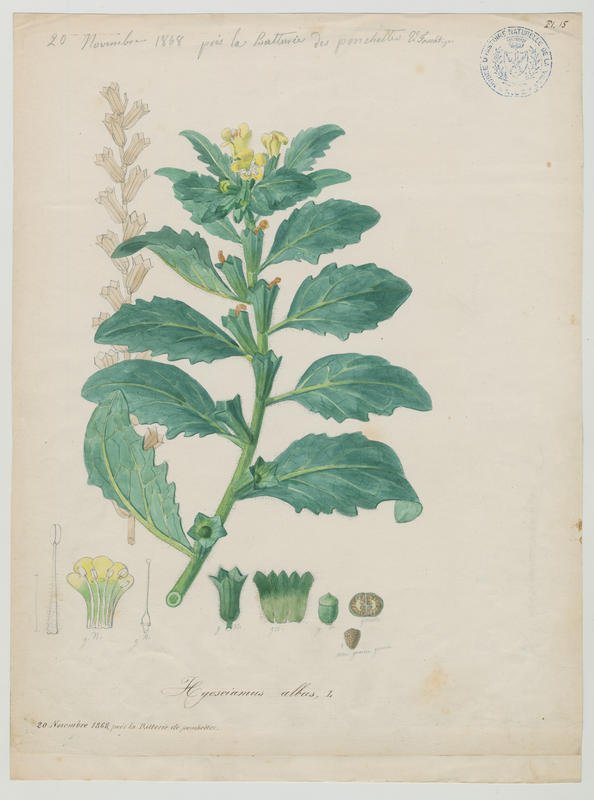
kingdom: Plantae
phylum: Tracheophyta
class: Magnoliopsida
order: Solanales
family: Solanaceae
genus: Hyoscyamus
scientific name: Hyoscyamus albus
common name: White henbane
